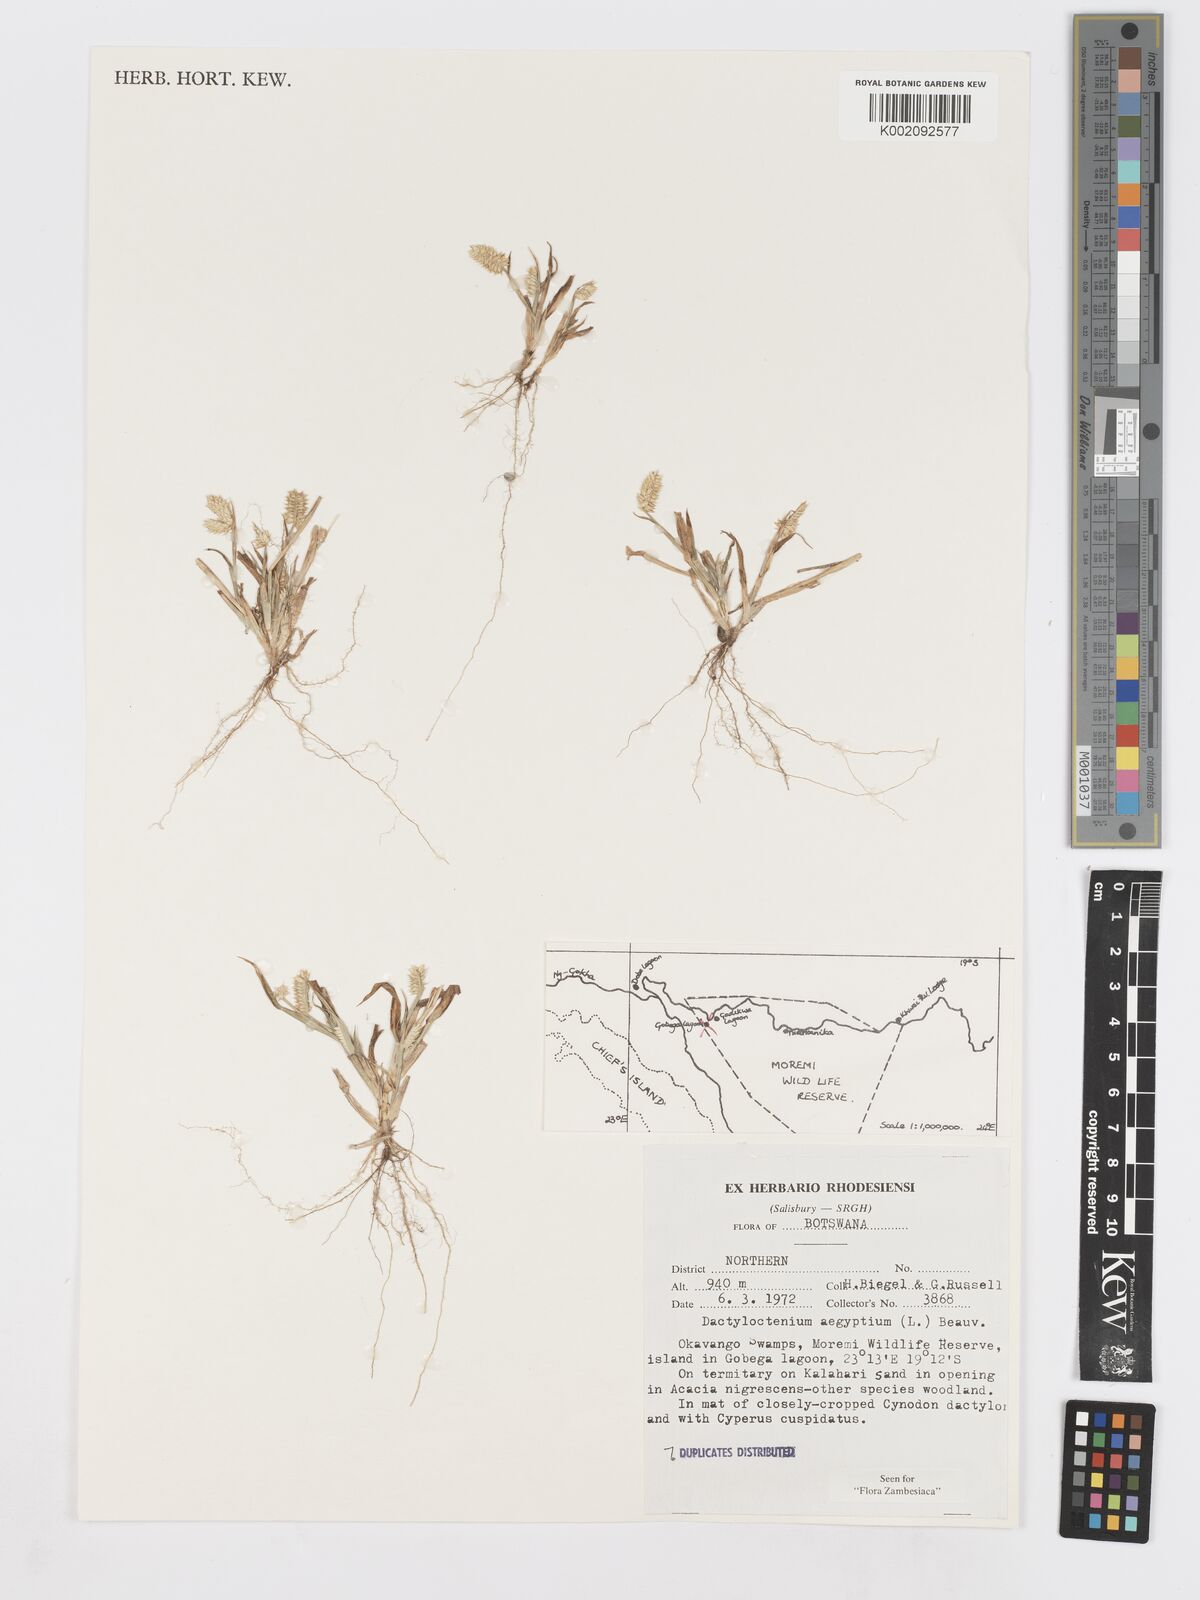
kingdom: Plantae
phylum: Tracheophyta
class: Liliopsida
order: Poales
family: Poaceae
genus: Dactyloctenium
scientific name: Dactyloctenium aegyptium
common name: Egyptian grass
